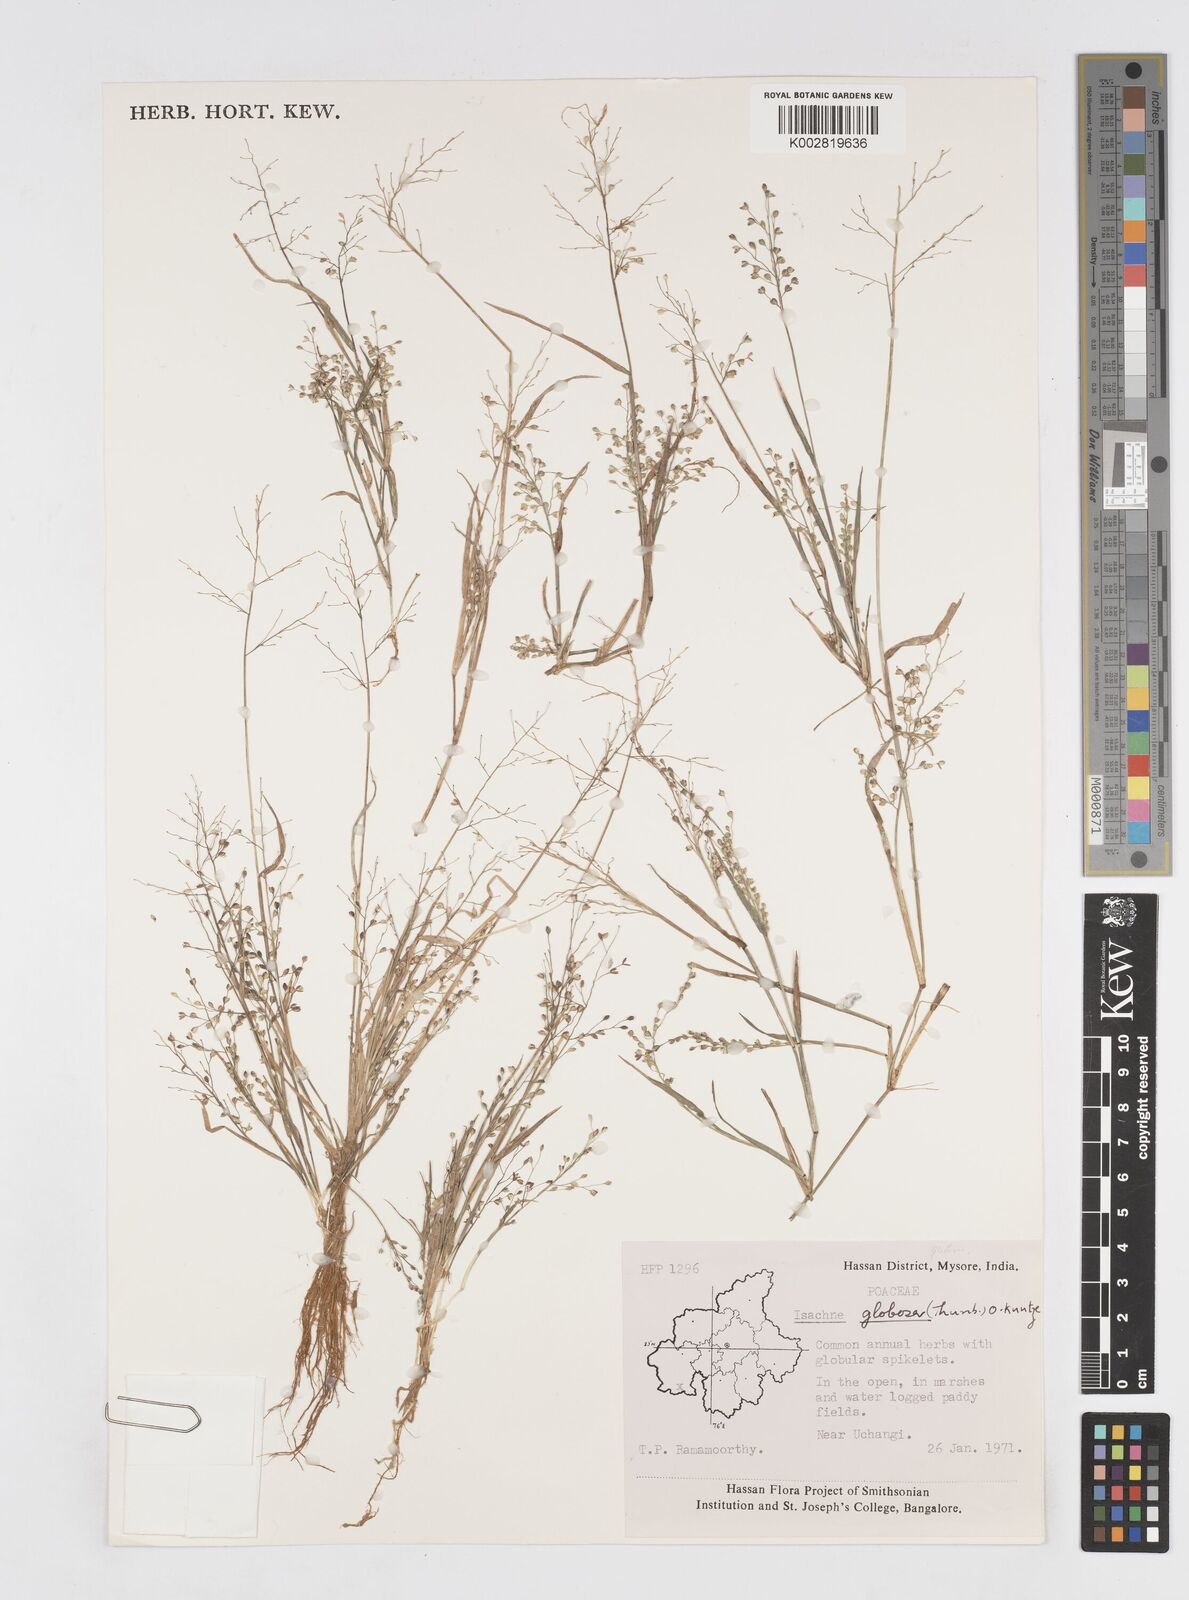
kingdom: Plantae
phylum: Tracheophyta
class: Liliopsida
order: Poales
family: Poaceae
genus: Isachne
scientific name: Isachne globosa
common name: Swamp millet
